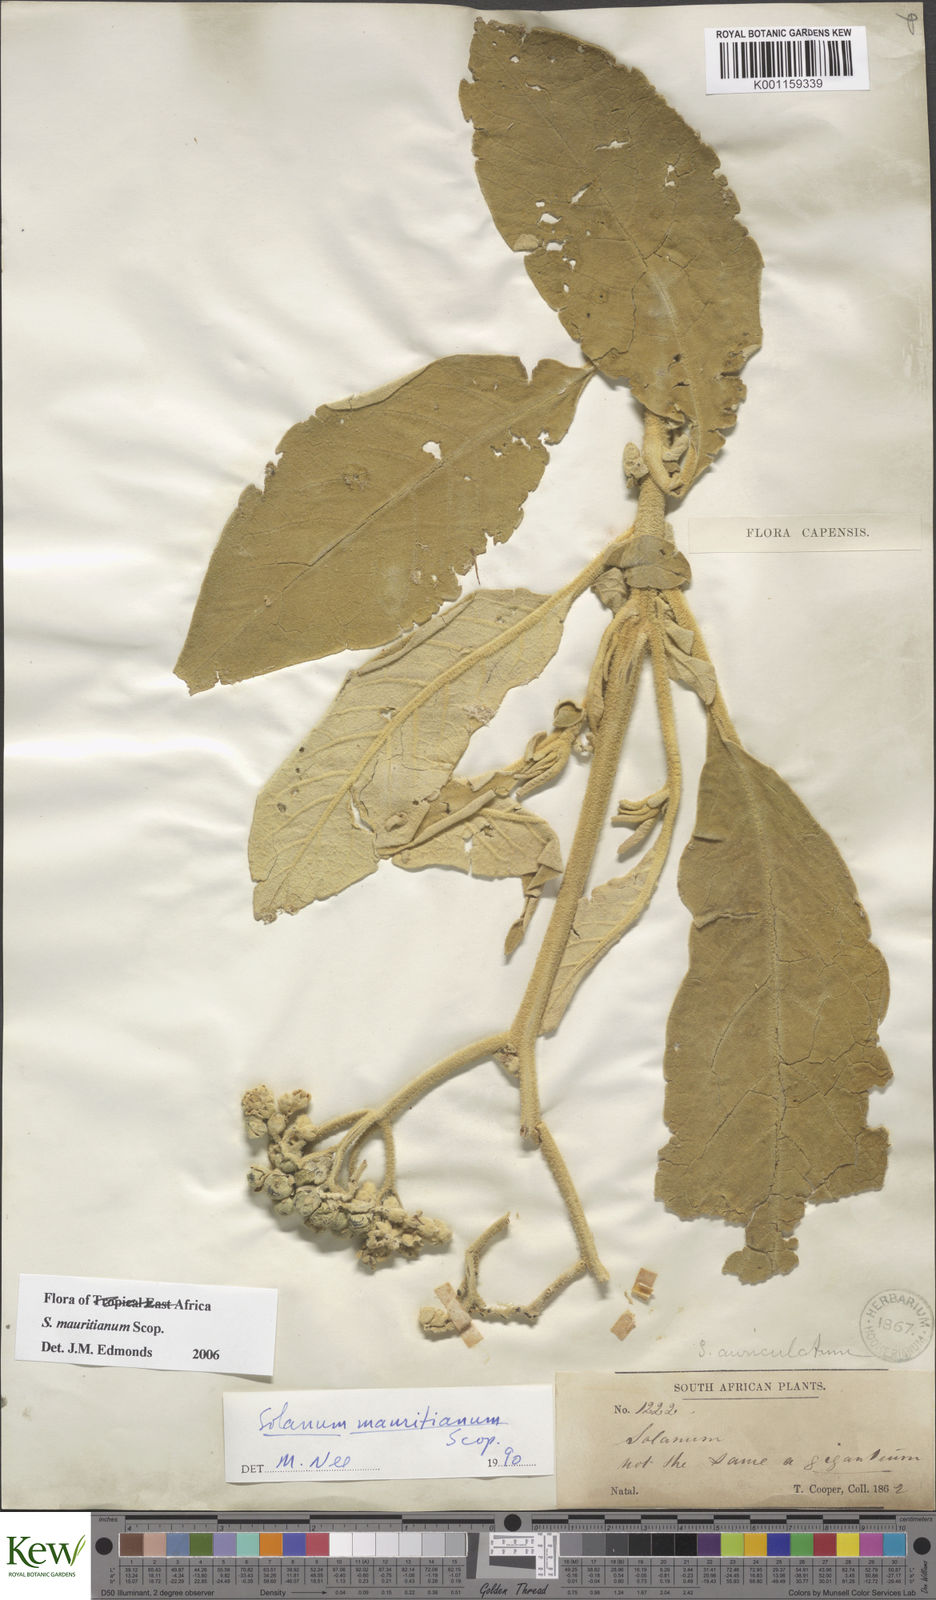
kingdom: Plantae
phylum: Tracheophyta
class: Magnoliopsida
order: Solanales
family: Solanaceae
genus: Solanum
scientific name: Solanum mauritianum
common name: Earleaf nightshade
